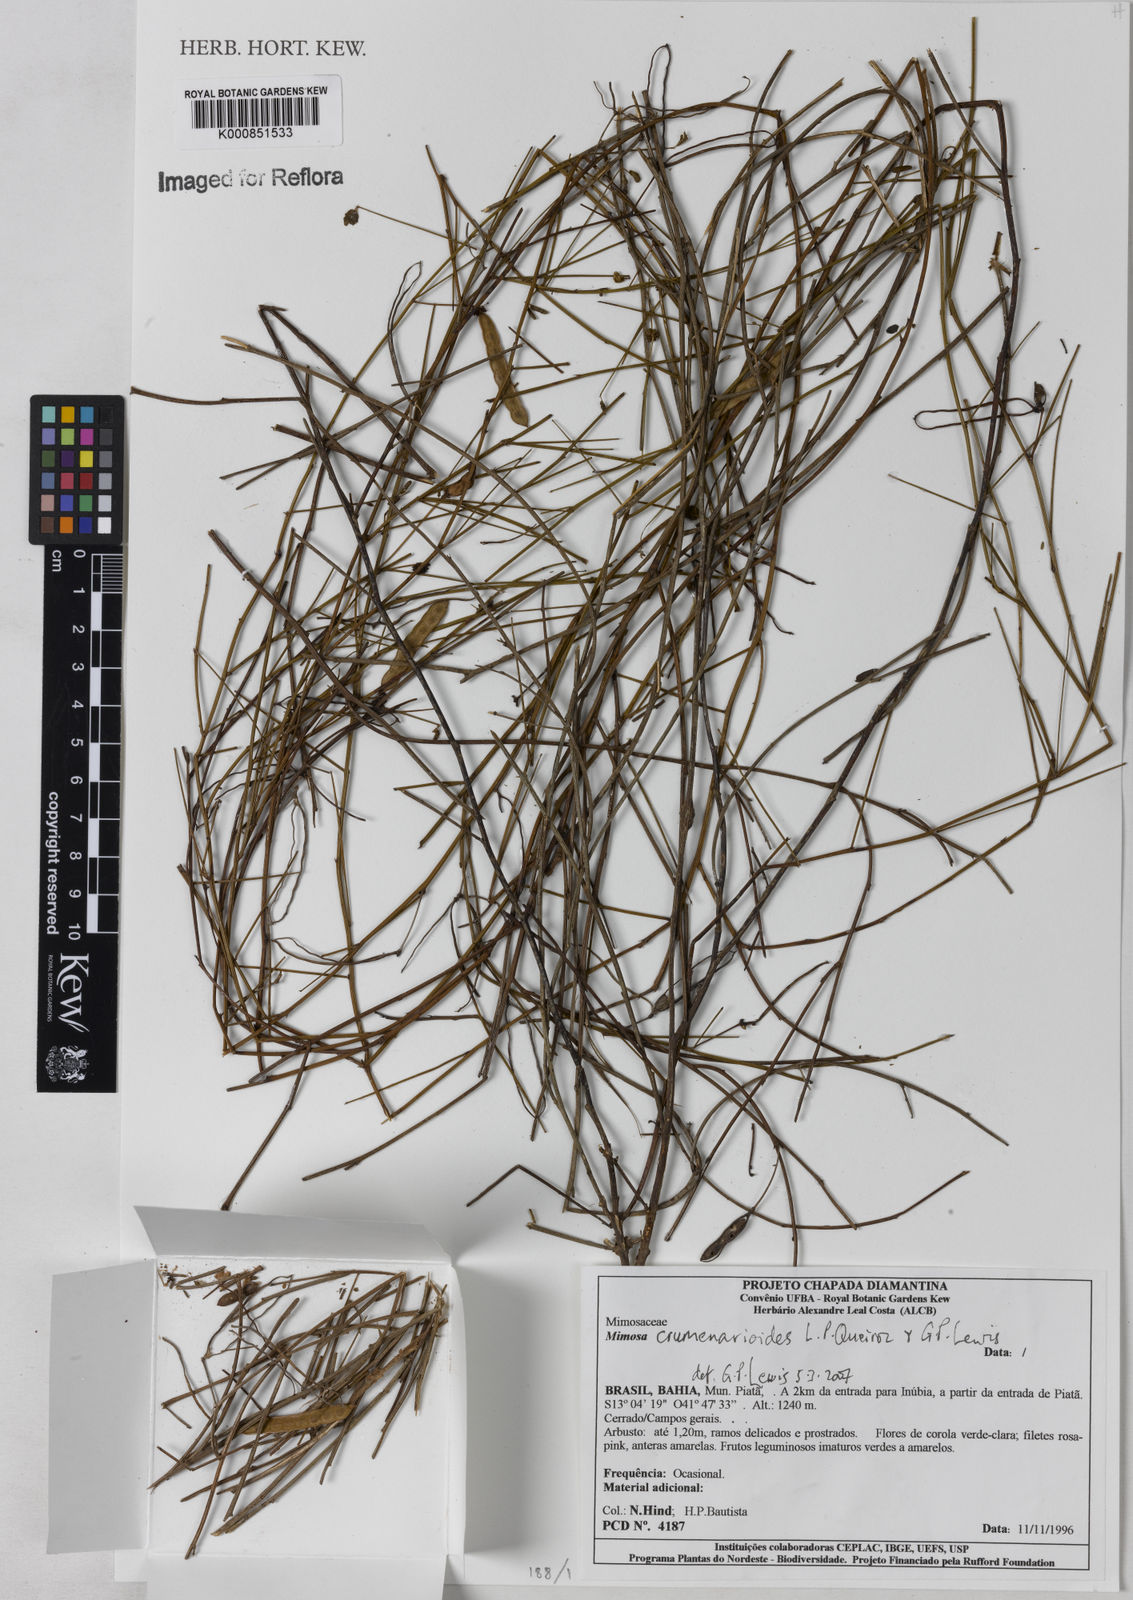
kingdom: Plantae
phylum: Tracheophyta
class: Magnoliopsida
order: Fabales
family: Fabaceae
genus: Mimosa
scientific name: Mimosa crumenarioides
